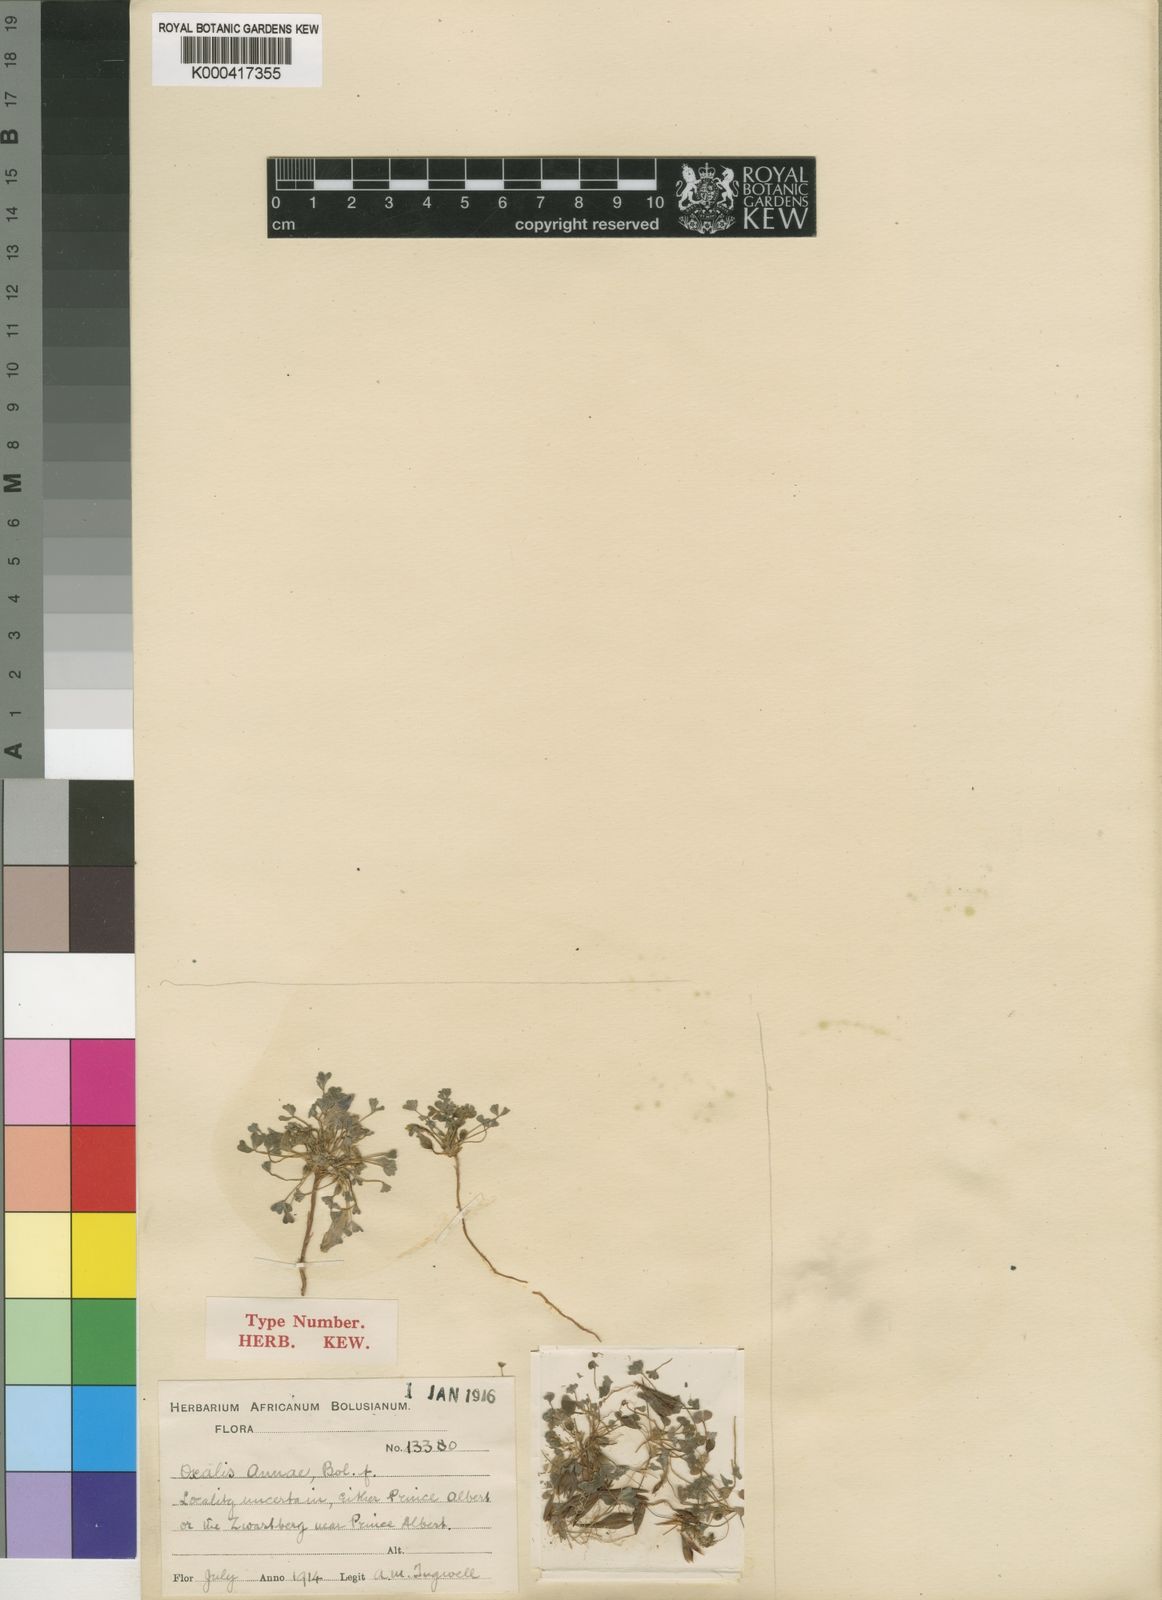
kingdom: Plantae
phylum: Tracheophyta
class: Magnoliopsida
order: Oxalidales
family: Oxalidaceae
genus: Oxalis
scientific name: Oxalis annae
